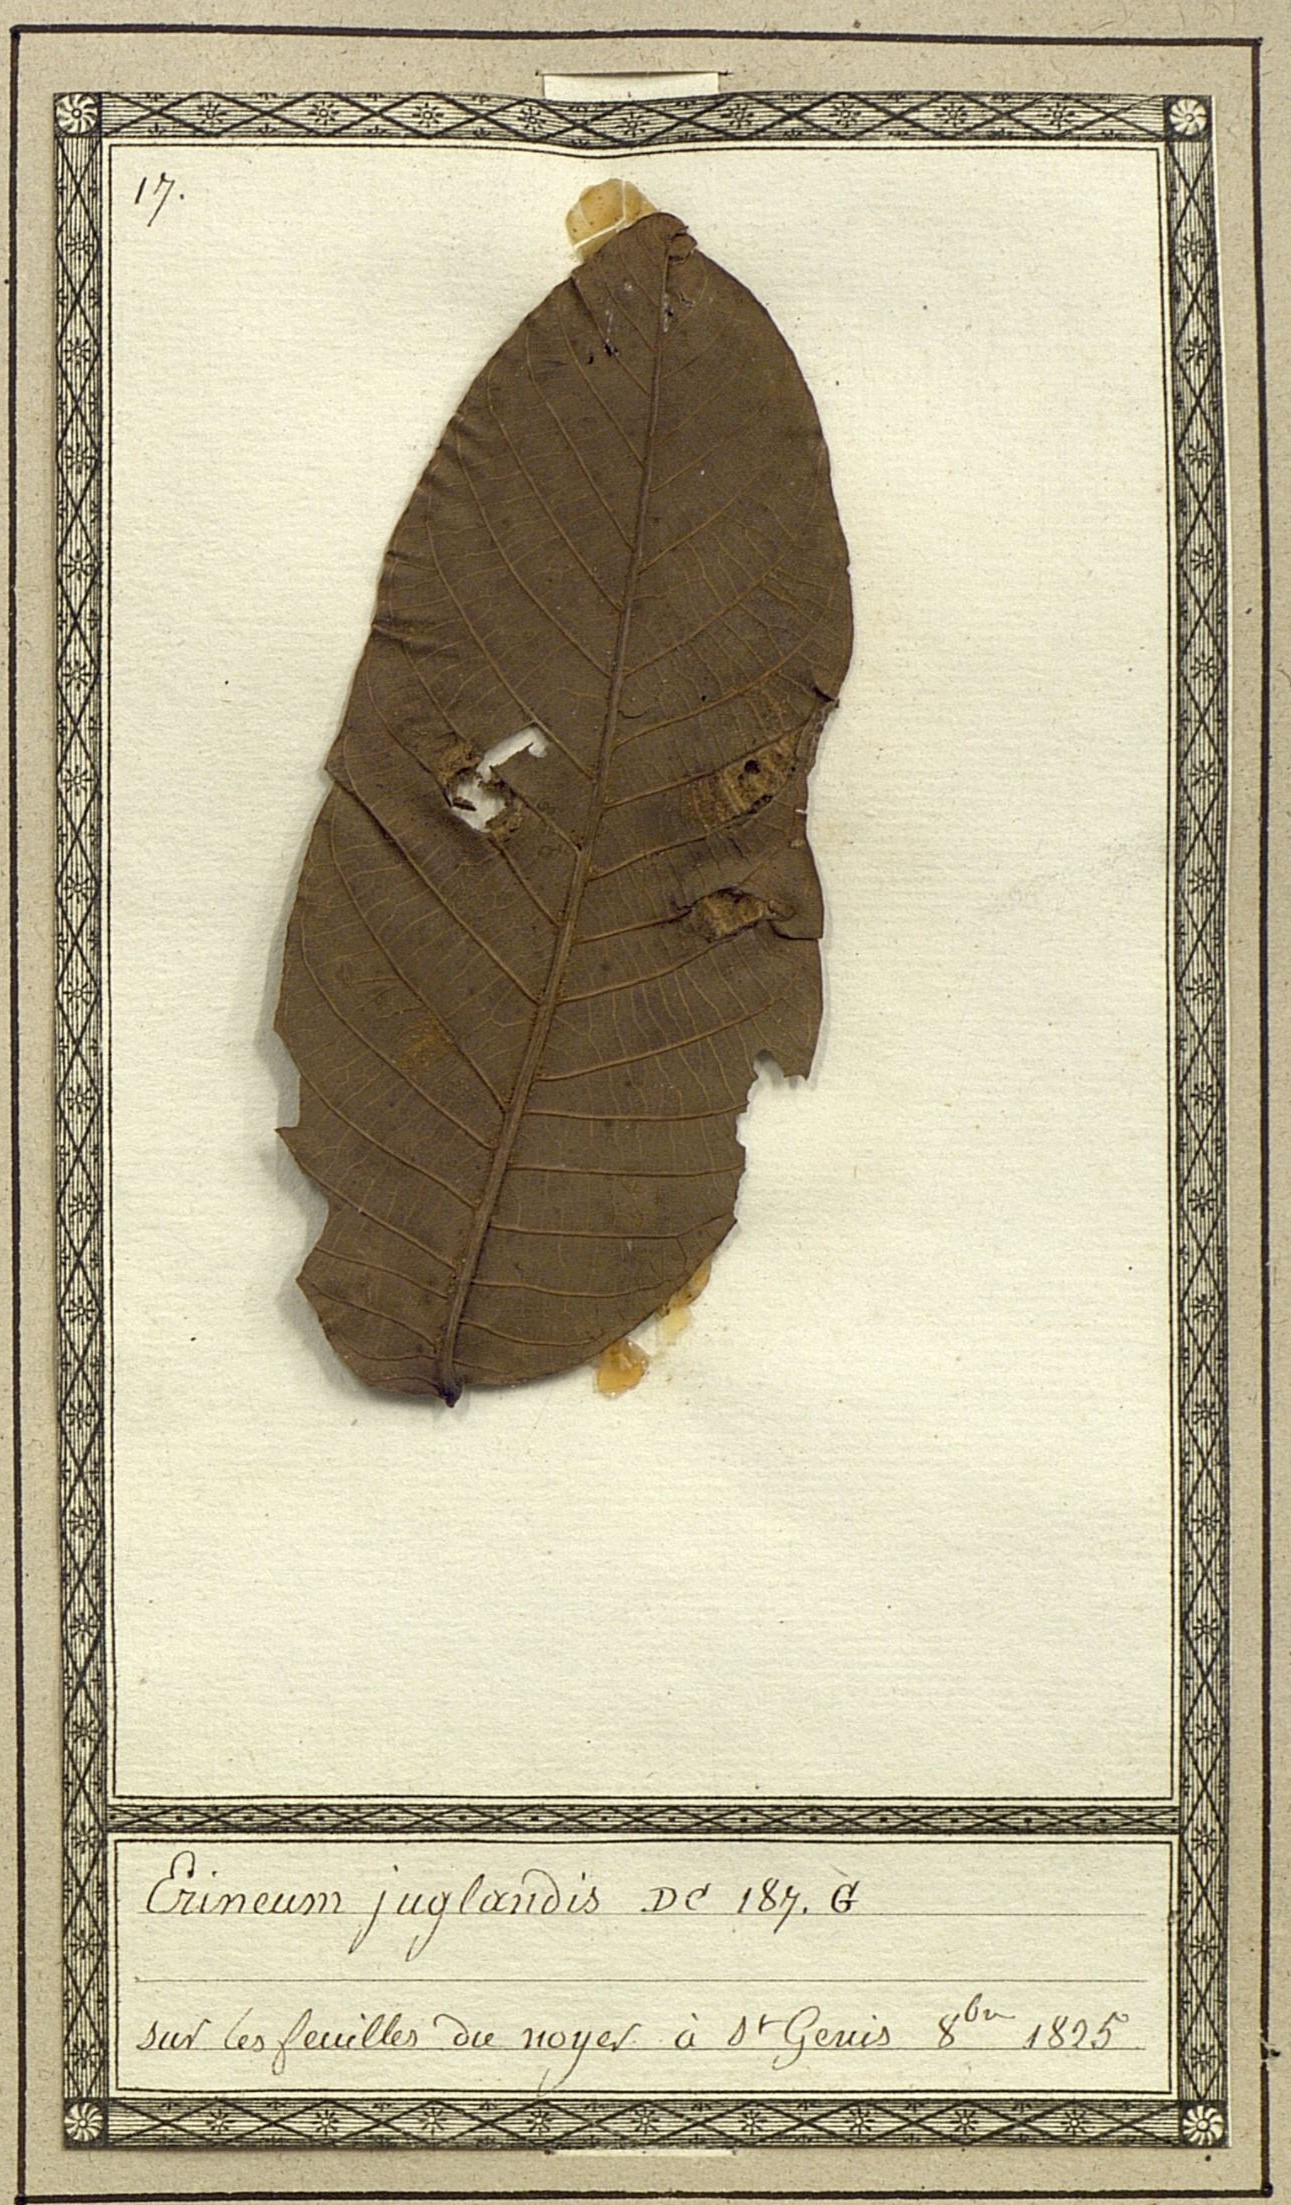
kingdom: Fungi
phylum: Basidiomycota
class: Pucciniomycetes
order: Pucciniales
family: Cronartiaceae
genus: Erineum
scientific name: Erineum
